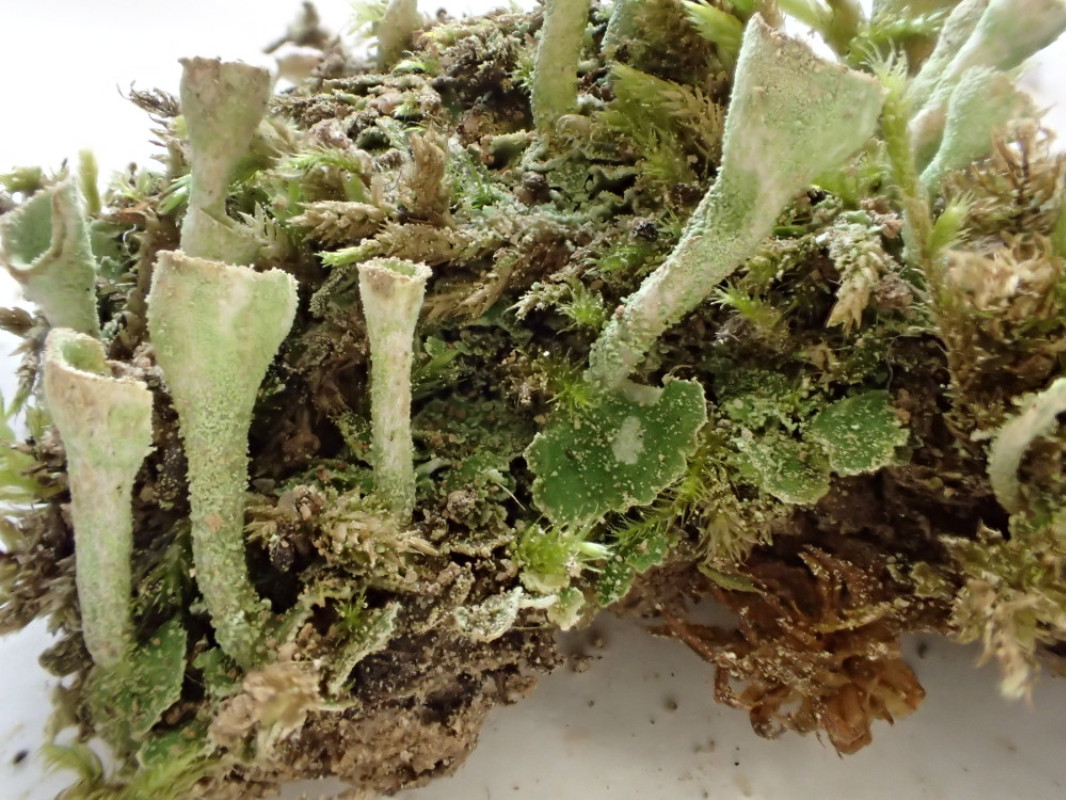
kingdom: Fungi
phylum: Ascomycota
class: Lecanoromycetes
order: Lecanorales
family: Cladoniaceae
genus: Cladonia
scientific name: Cladonia humilis
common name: lav bægerlav
